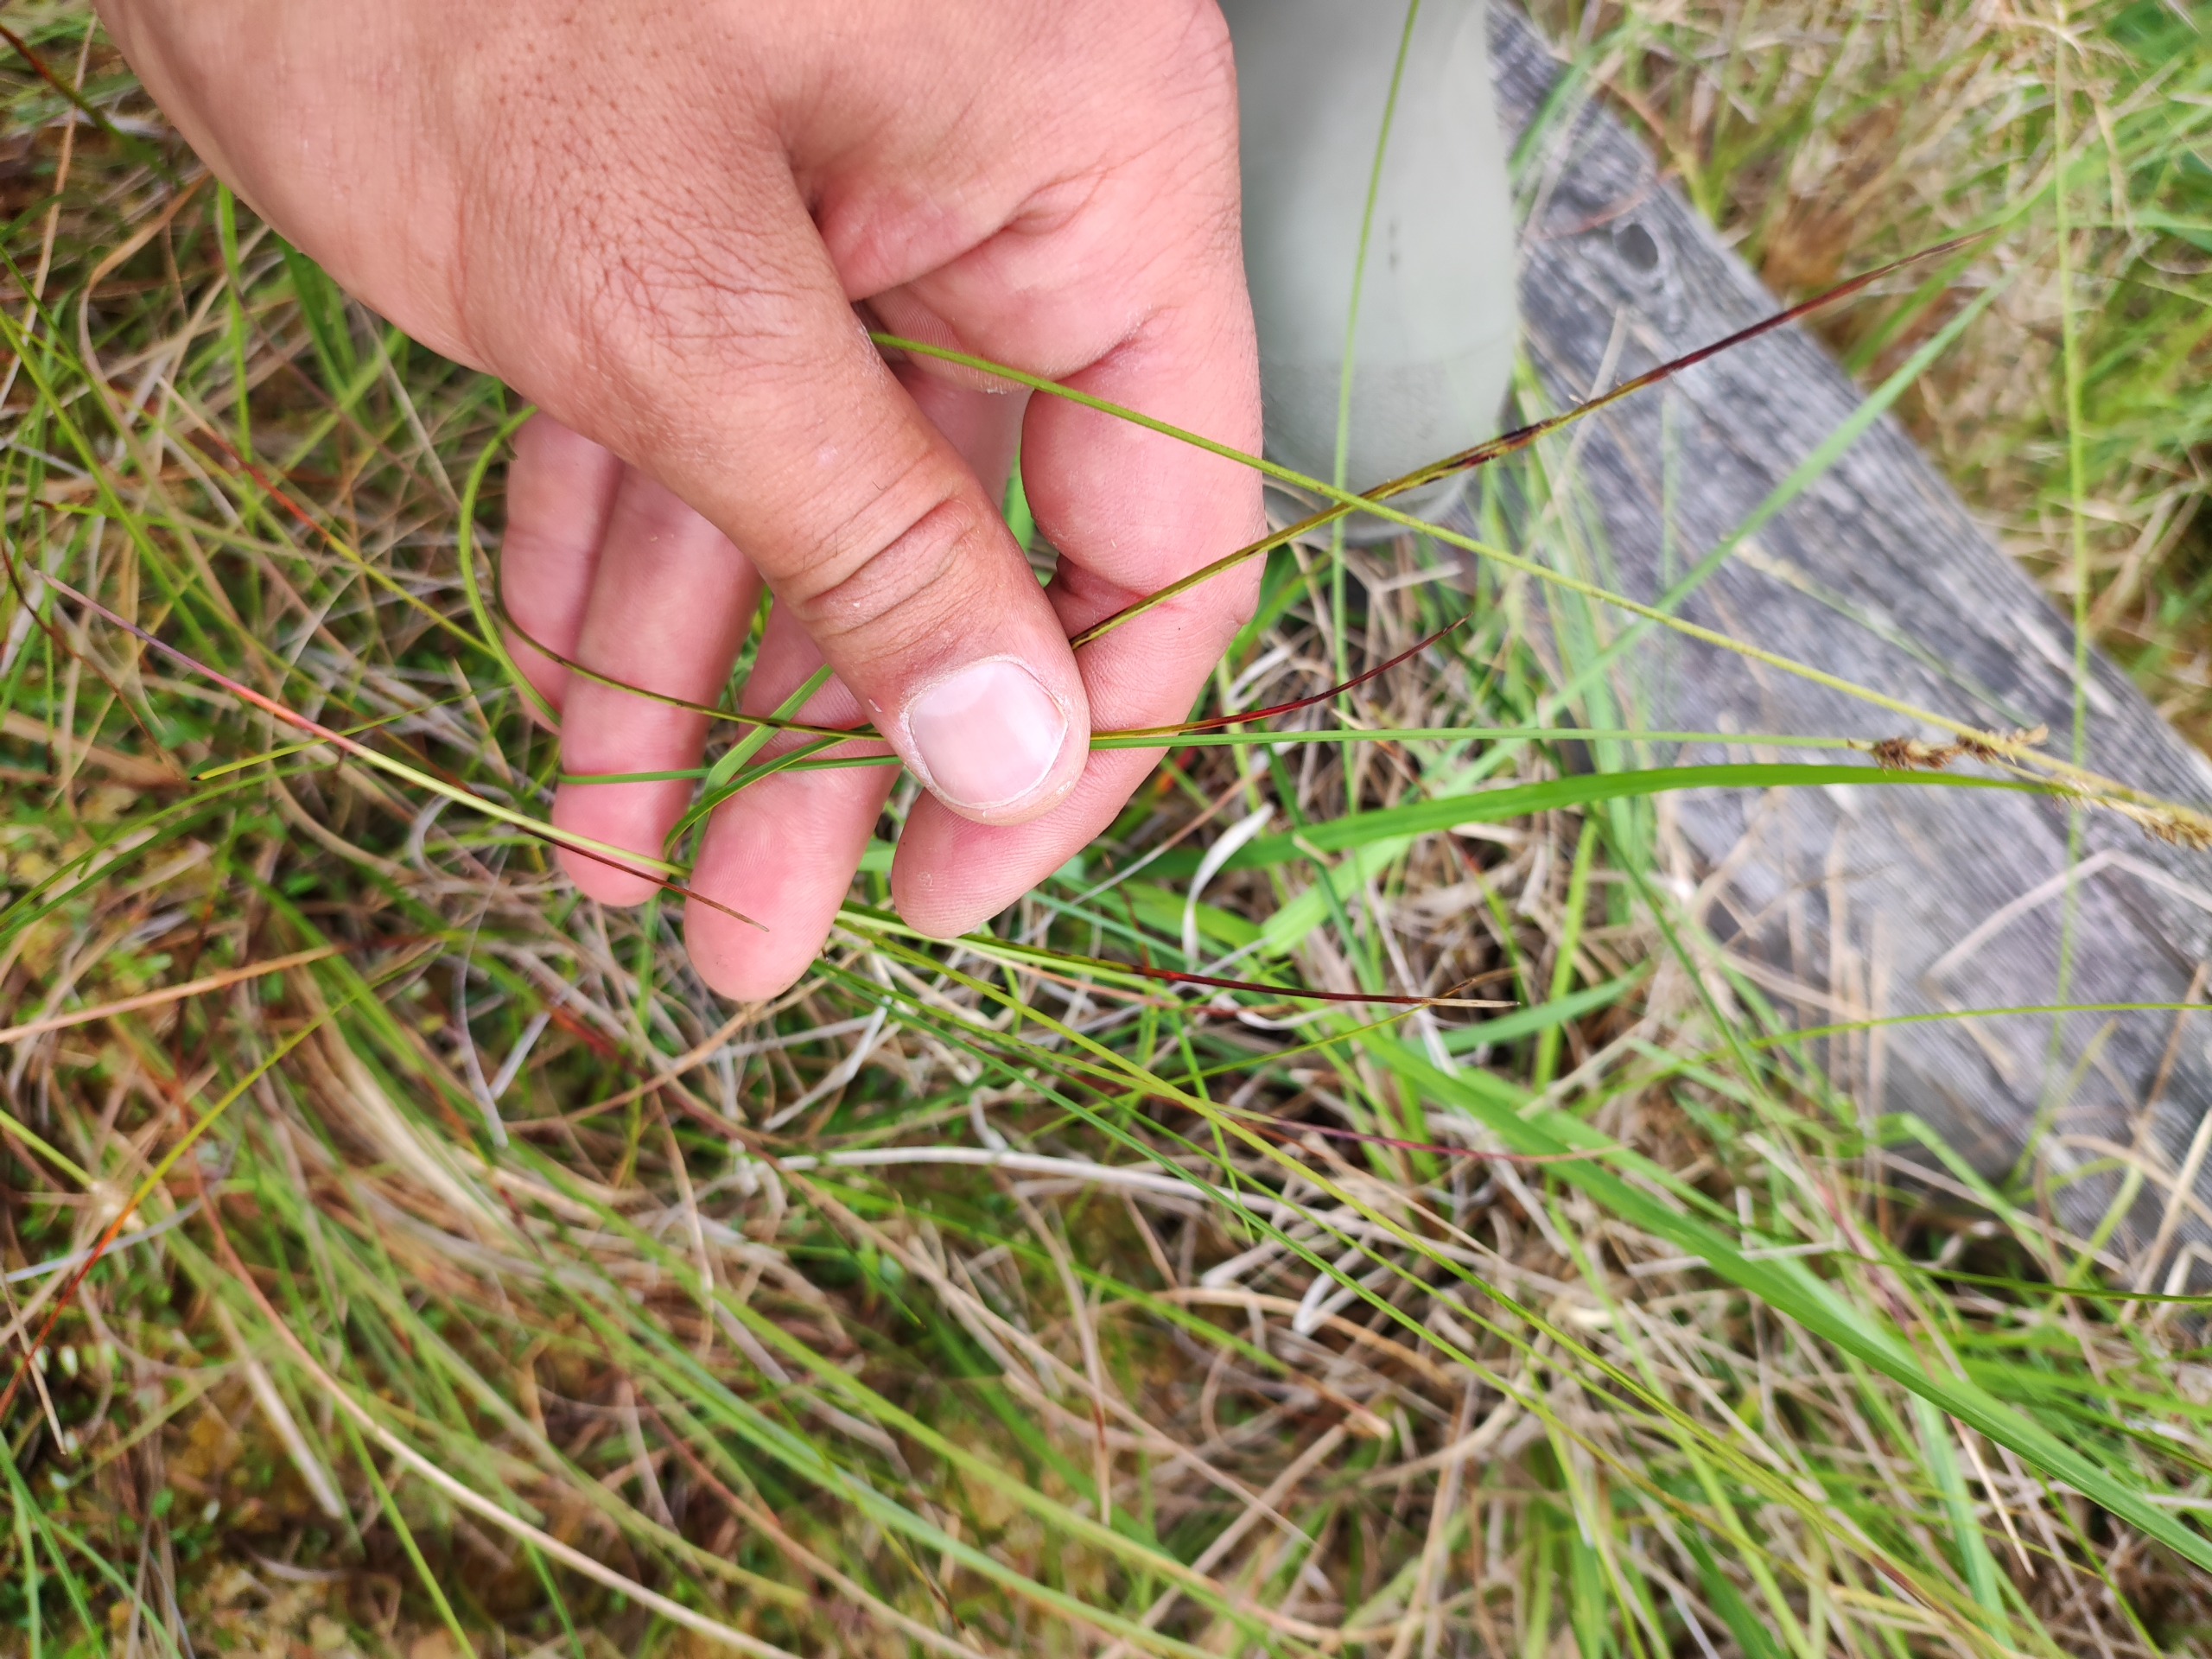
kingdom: Plantae
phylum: Tracheophyta
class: Liliopsida
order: Poales
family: Cyperaceae
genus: Carex
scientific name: Carex canescens
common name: Grå star
